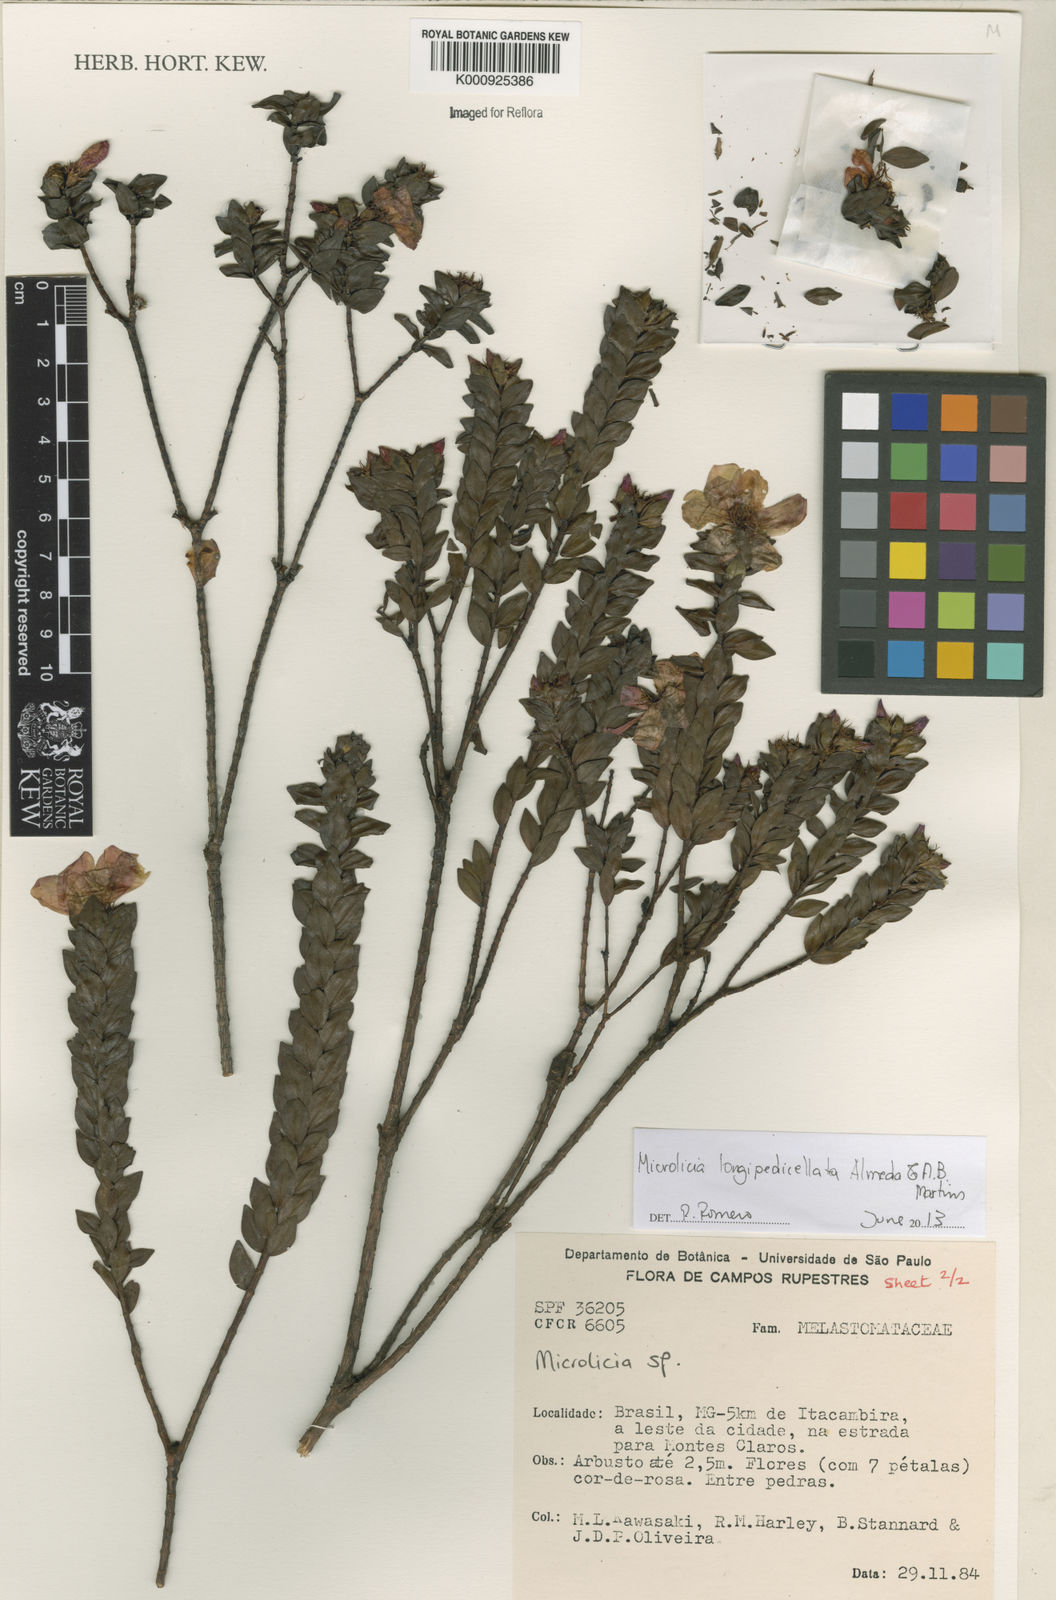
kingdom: Plantae
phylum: Tracheophyta
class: Magnoliopsida
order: Myrtales
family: Melastomataceae
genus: Microlicia
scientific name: Microlicia longipedicellata
